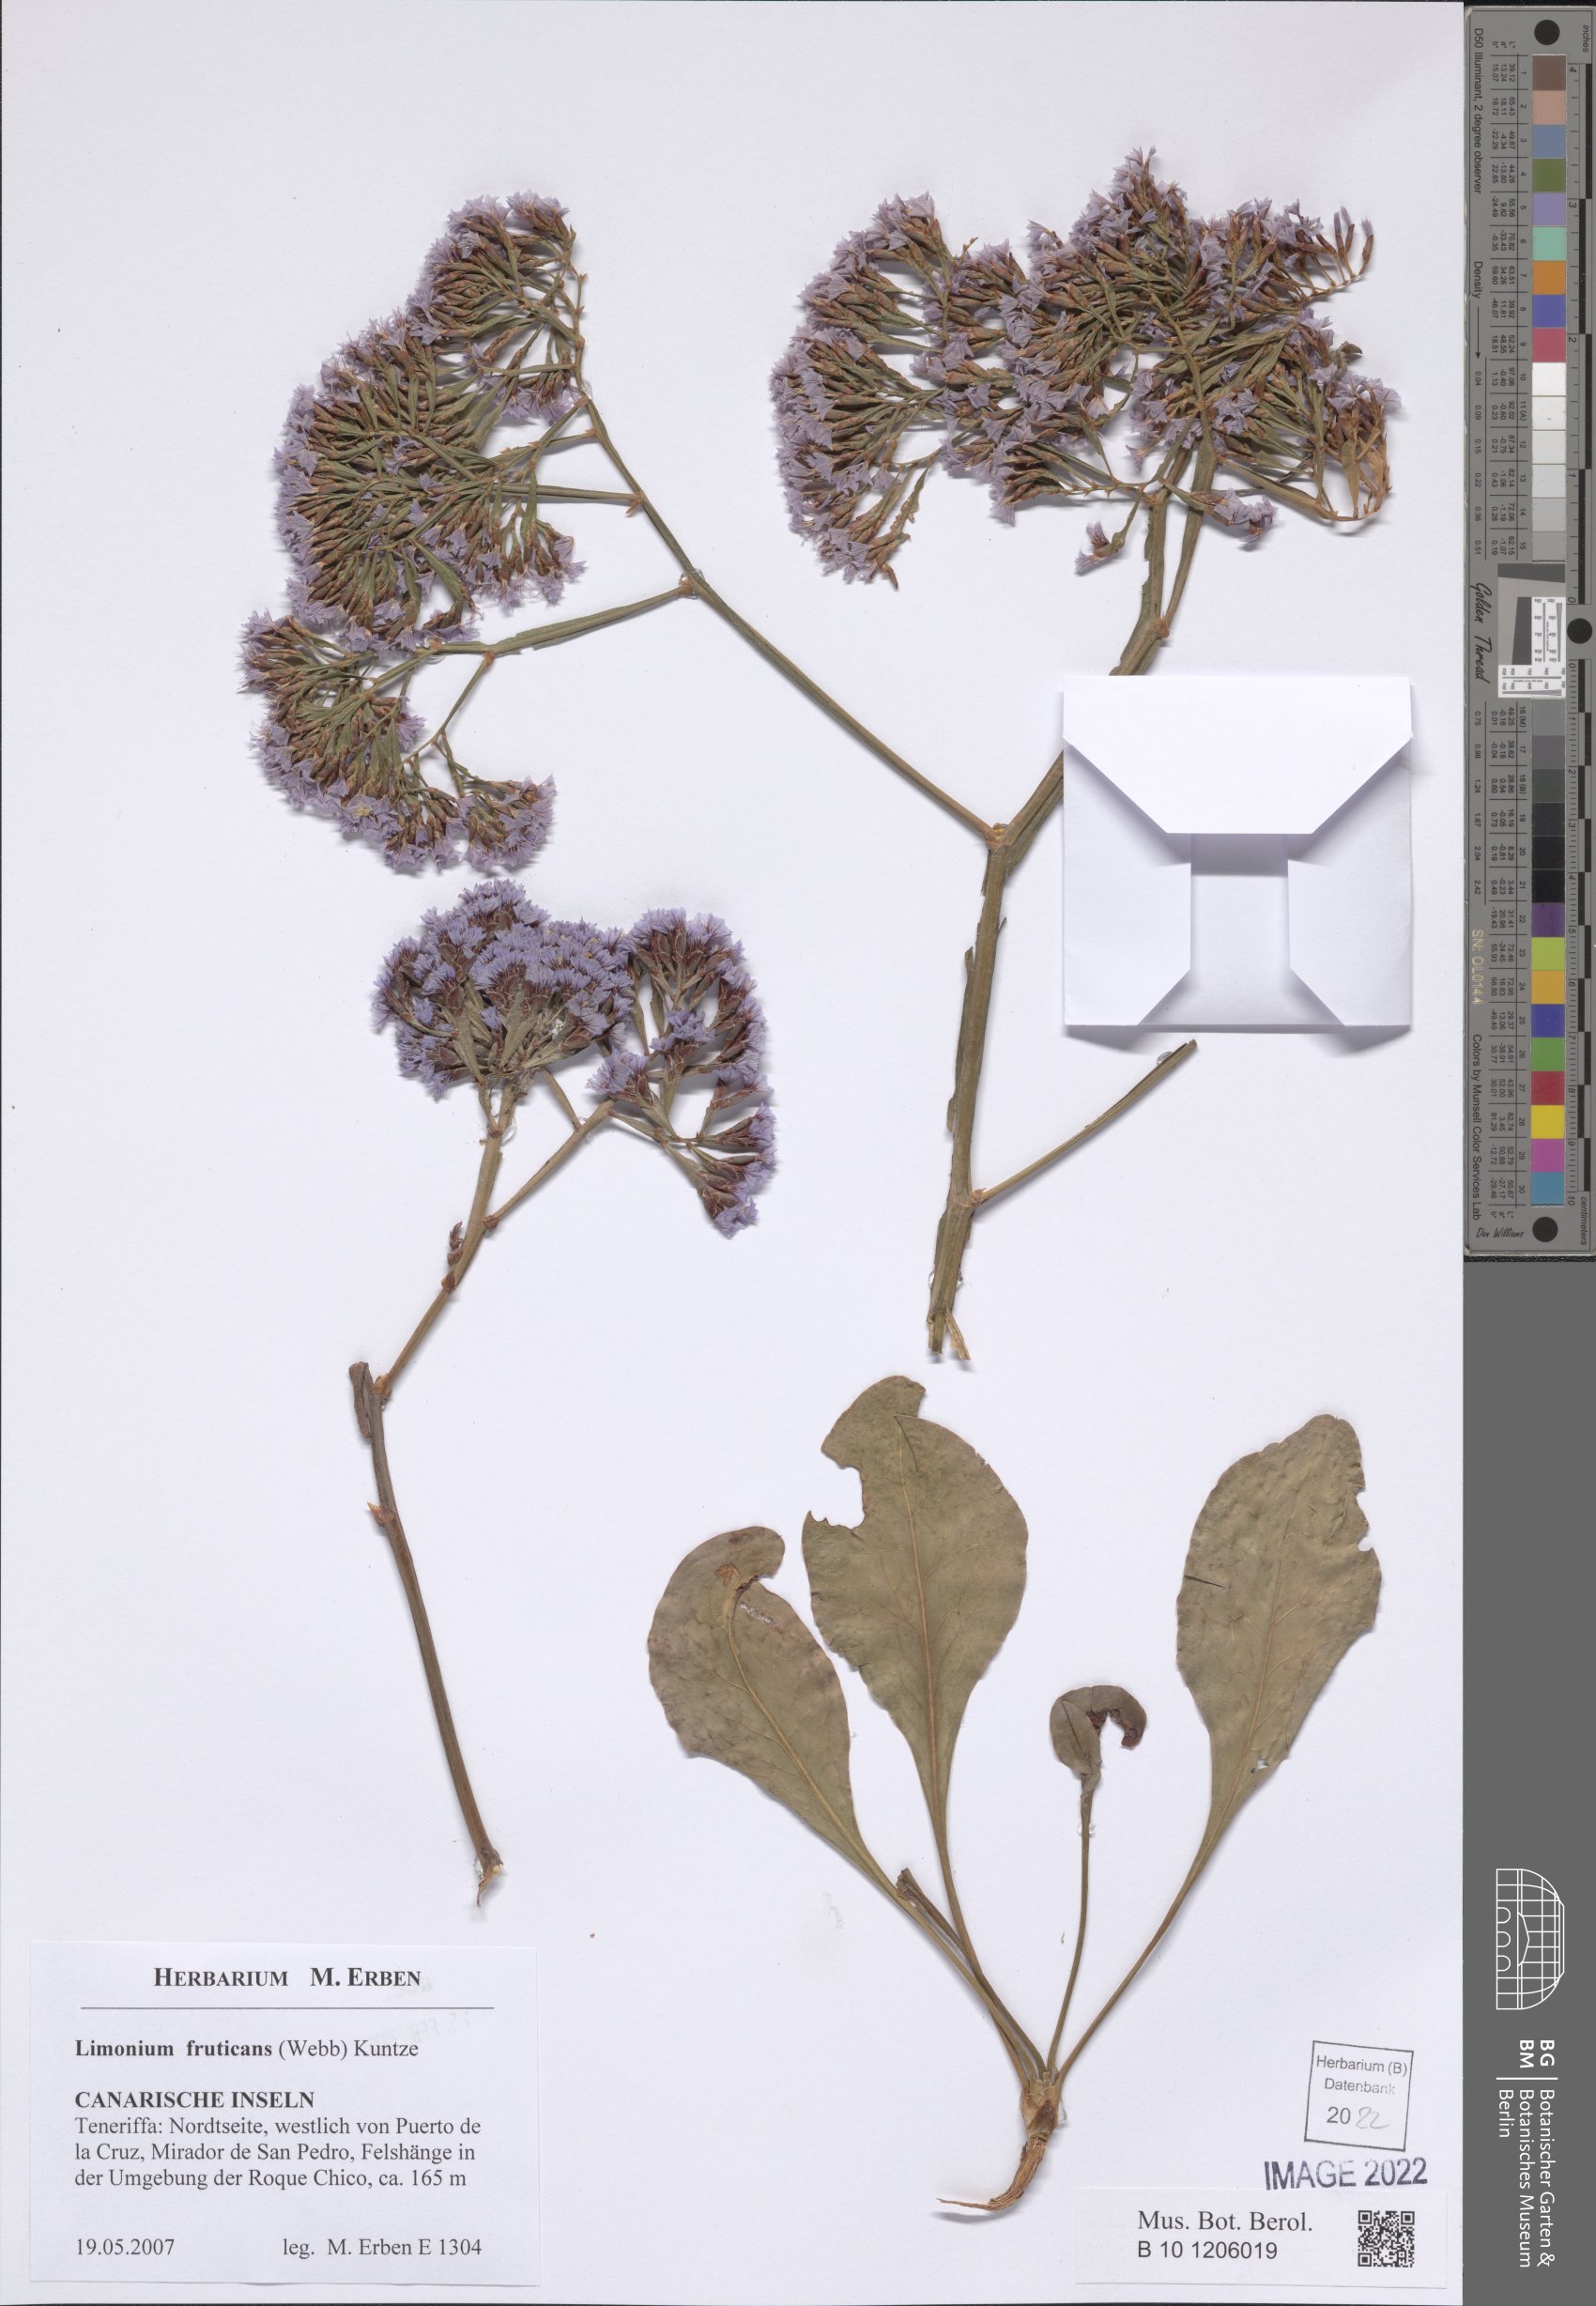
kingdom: Plantae
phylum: Tracheophyta
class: Magnoliopsida
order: Caryophyllales
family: Plumbaginaceae
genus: Limonium
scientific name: Limonium frutescens
